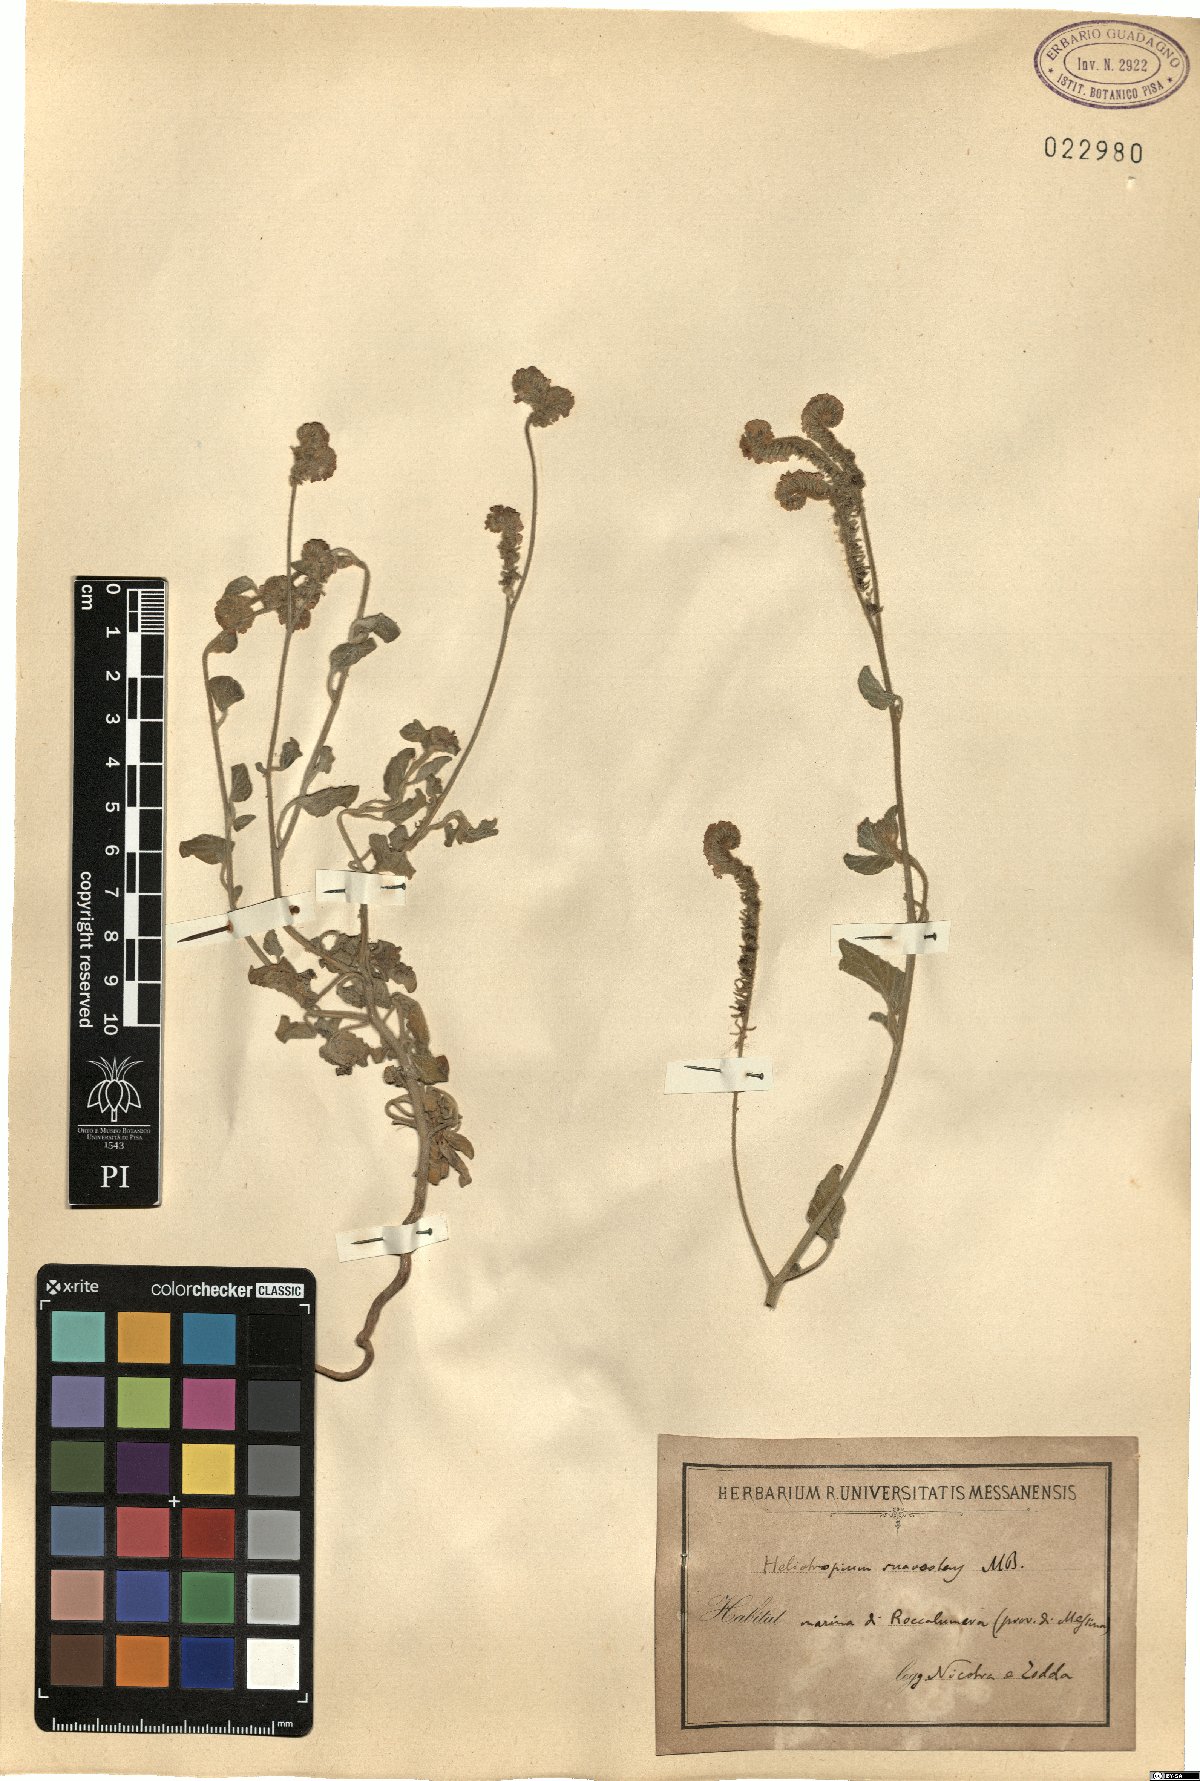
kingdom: Plantae
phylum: Tracheophyta
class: Magnoliopsida
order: Boraginales
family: Heliotropiaceae
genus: Heliotropium
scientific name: Heliotropium suaveolens
